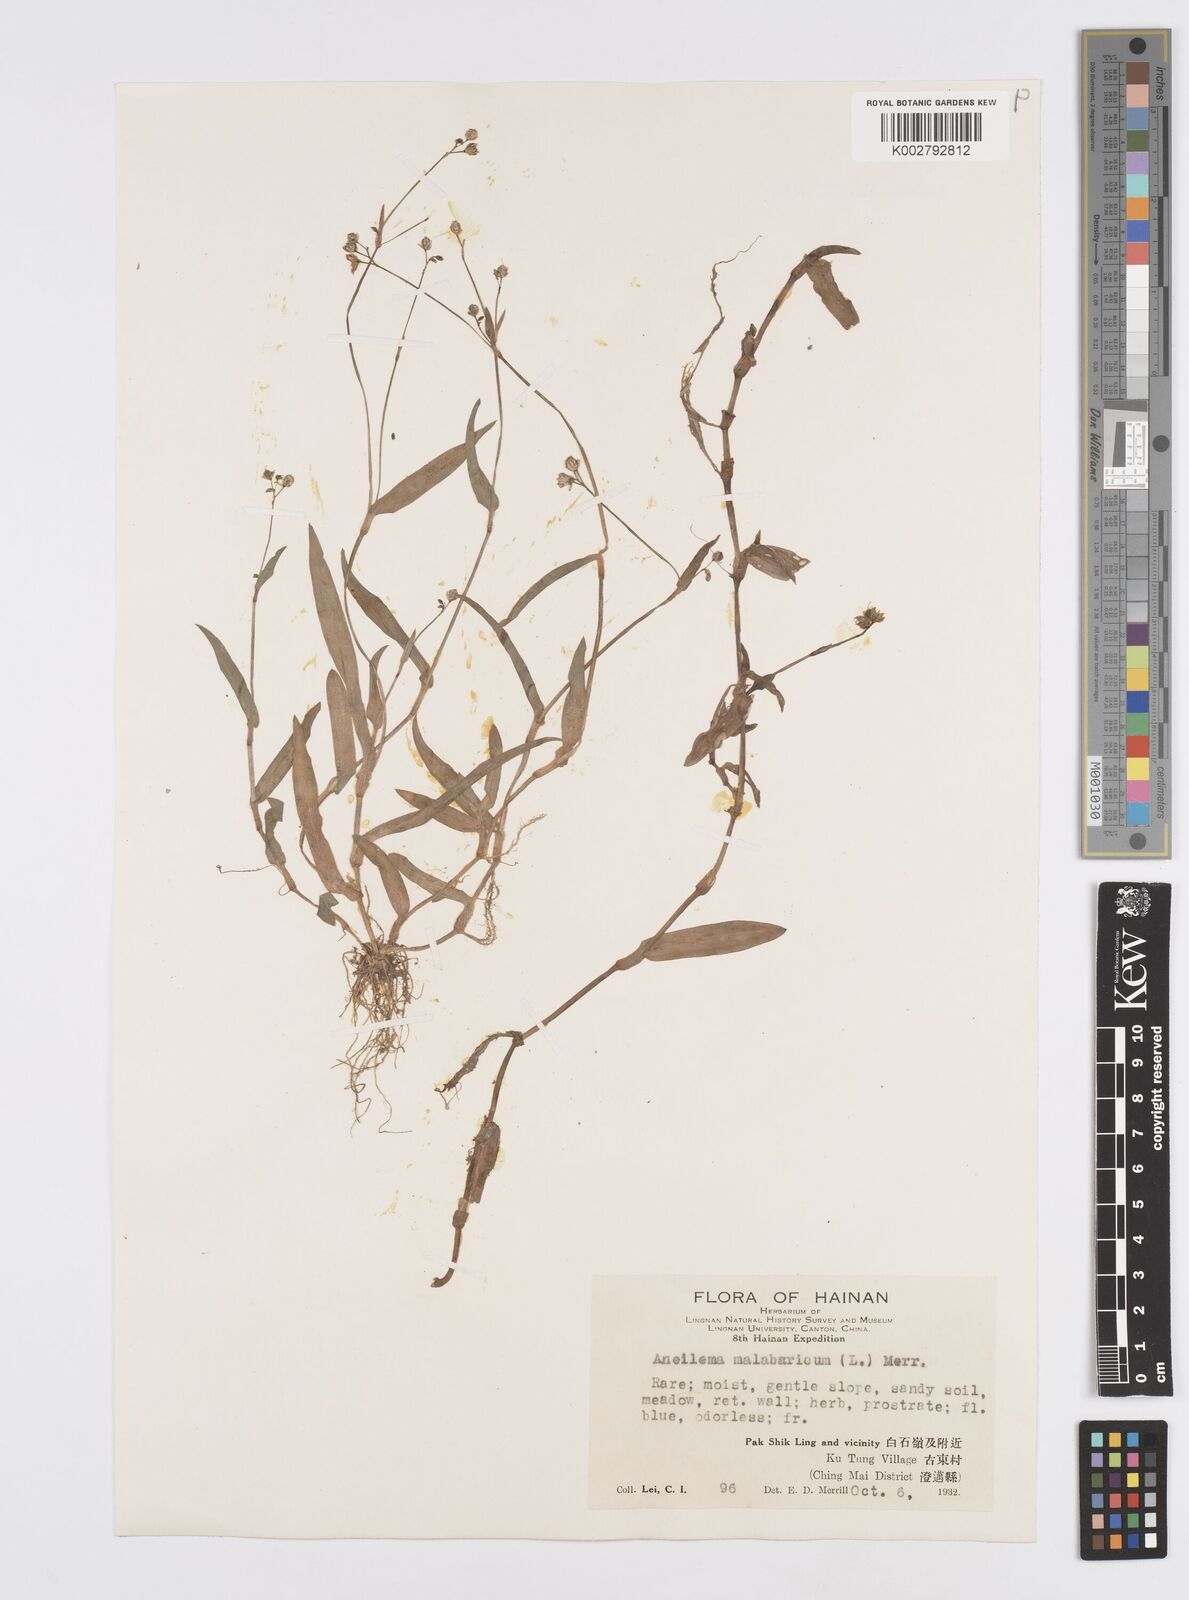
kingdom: Plantae
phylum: Tracheophyta
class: Liliopsida
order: Commelinales
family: Commelinaceae
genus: Murdannia
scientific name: Murdannia
